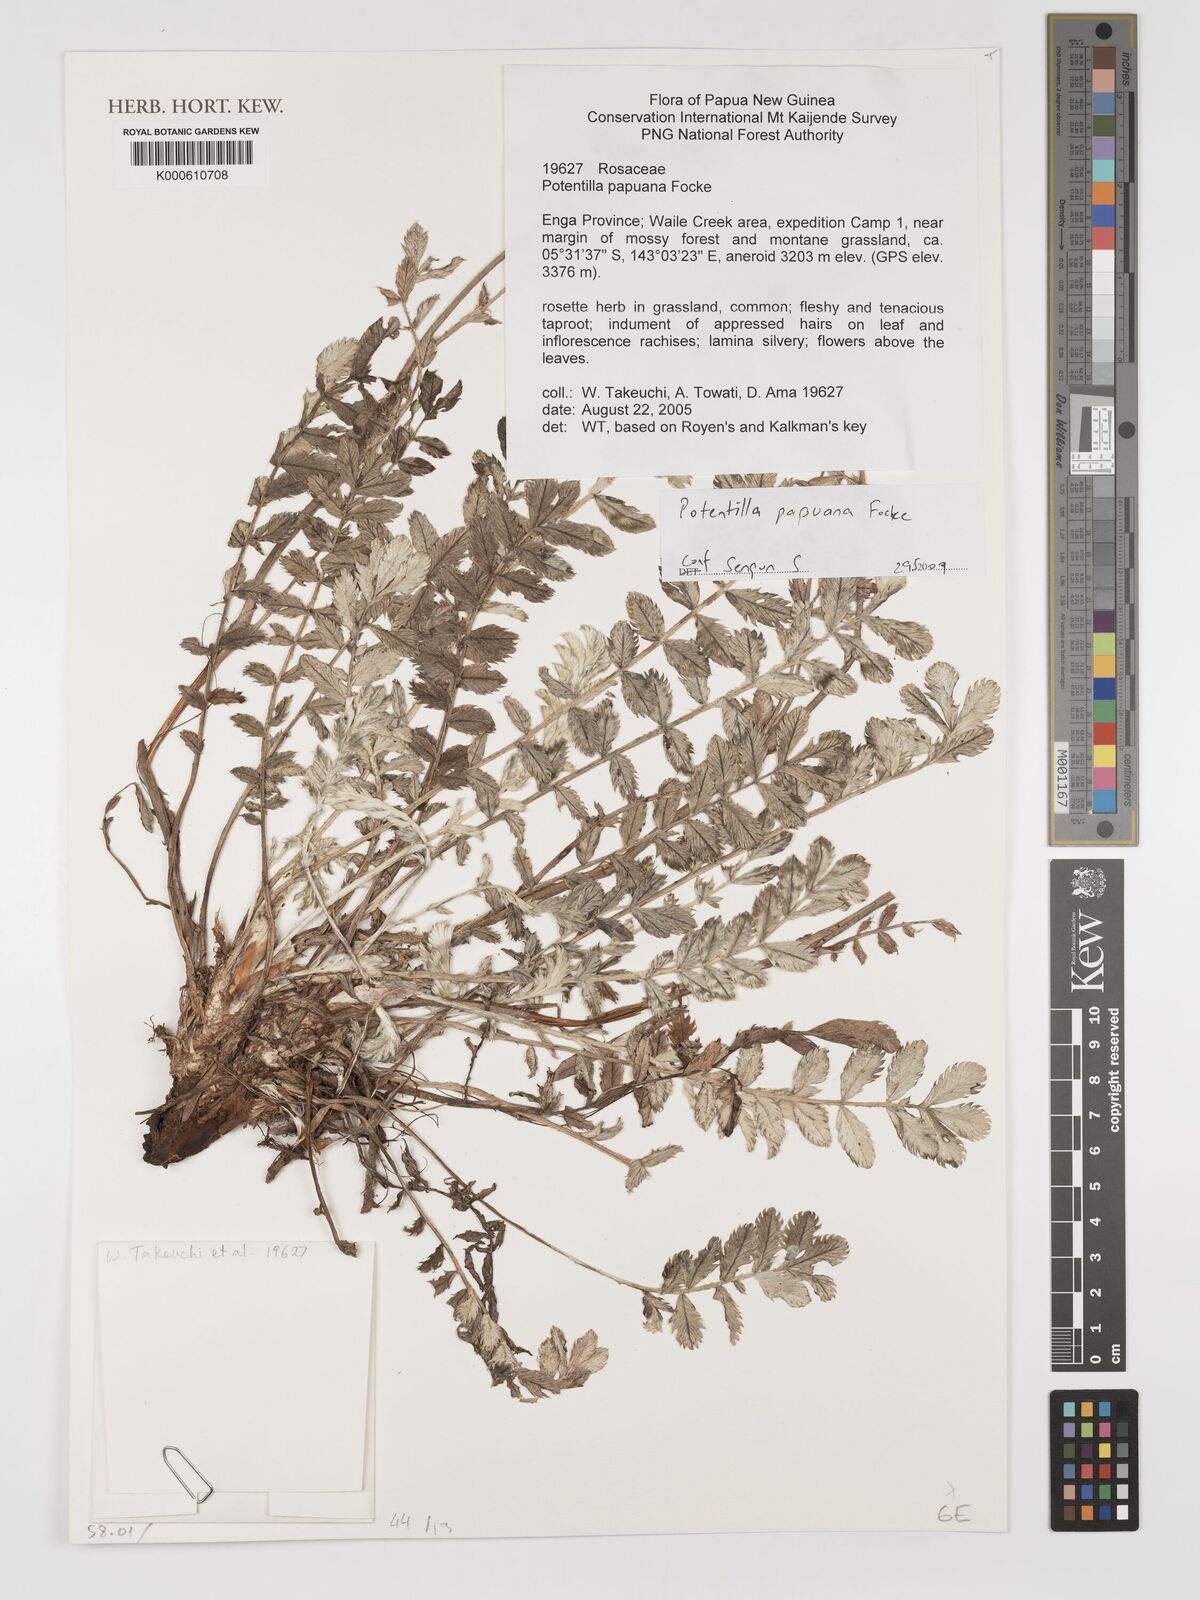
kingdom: Plantae
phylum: Tracheophyta
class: Magnoliopsida
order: Rosales
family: Rosaceae
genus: Argentina
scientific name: Argentina papuana
